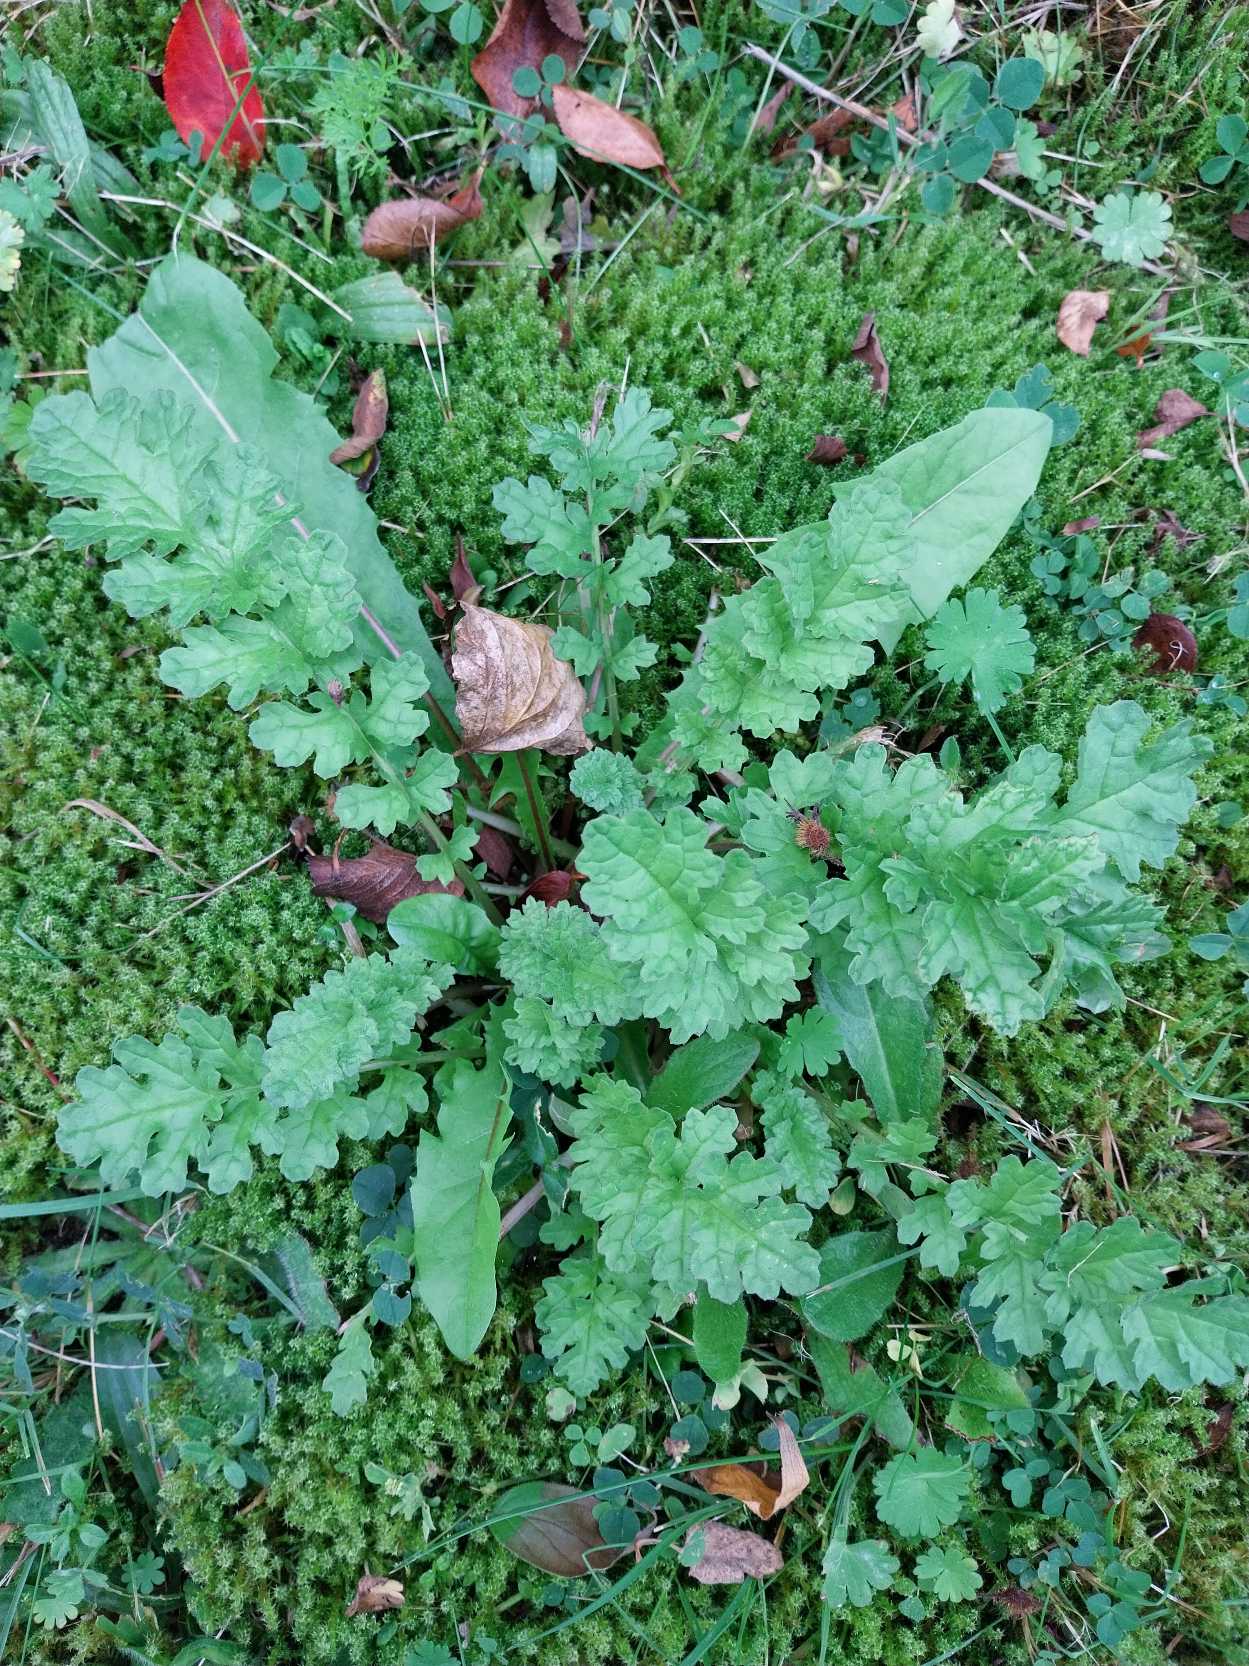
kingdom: Plantae
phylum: Tracheophyta
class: Magnoliopsida
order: Asterales
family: Asteraceae
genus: Jacobaea
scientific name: Jacobaea vulgaris
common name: Eng-brandbæger
